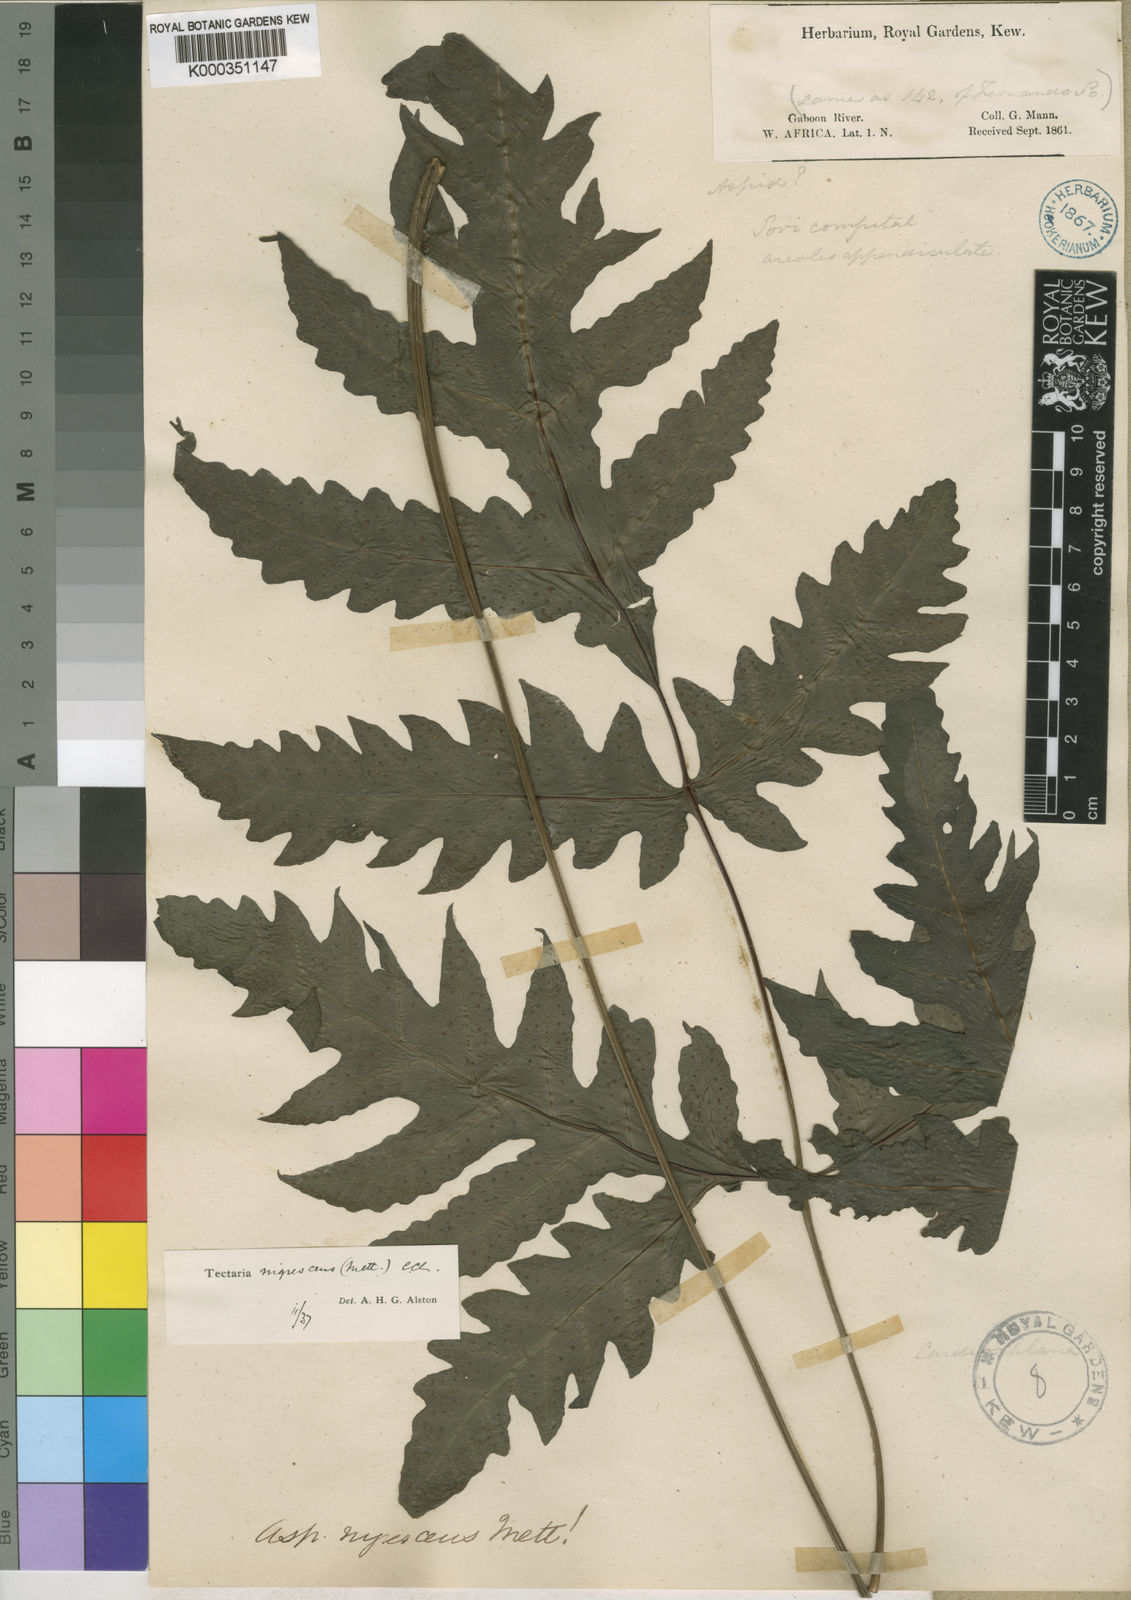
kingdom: Plantae
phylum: Tracheophyta
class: Polypodiopsida
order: Polypodiales
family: Tectariaceae
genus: Tectaria
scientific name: Tectaria angelicifolia
